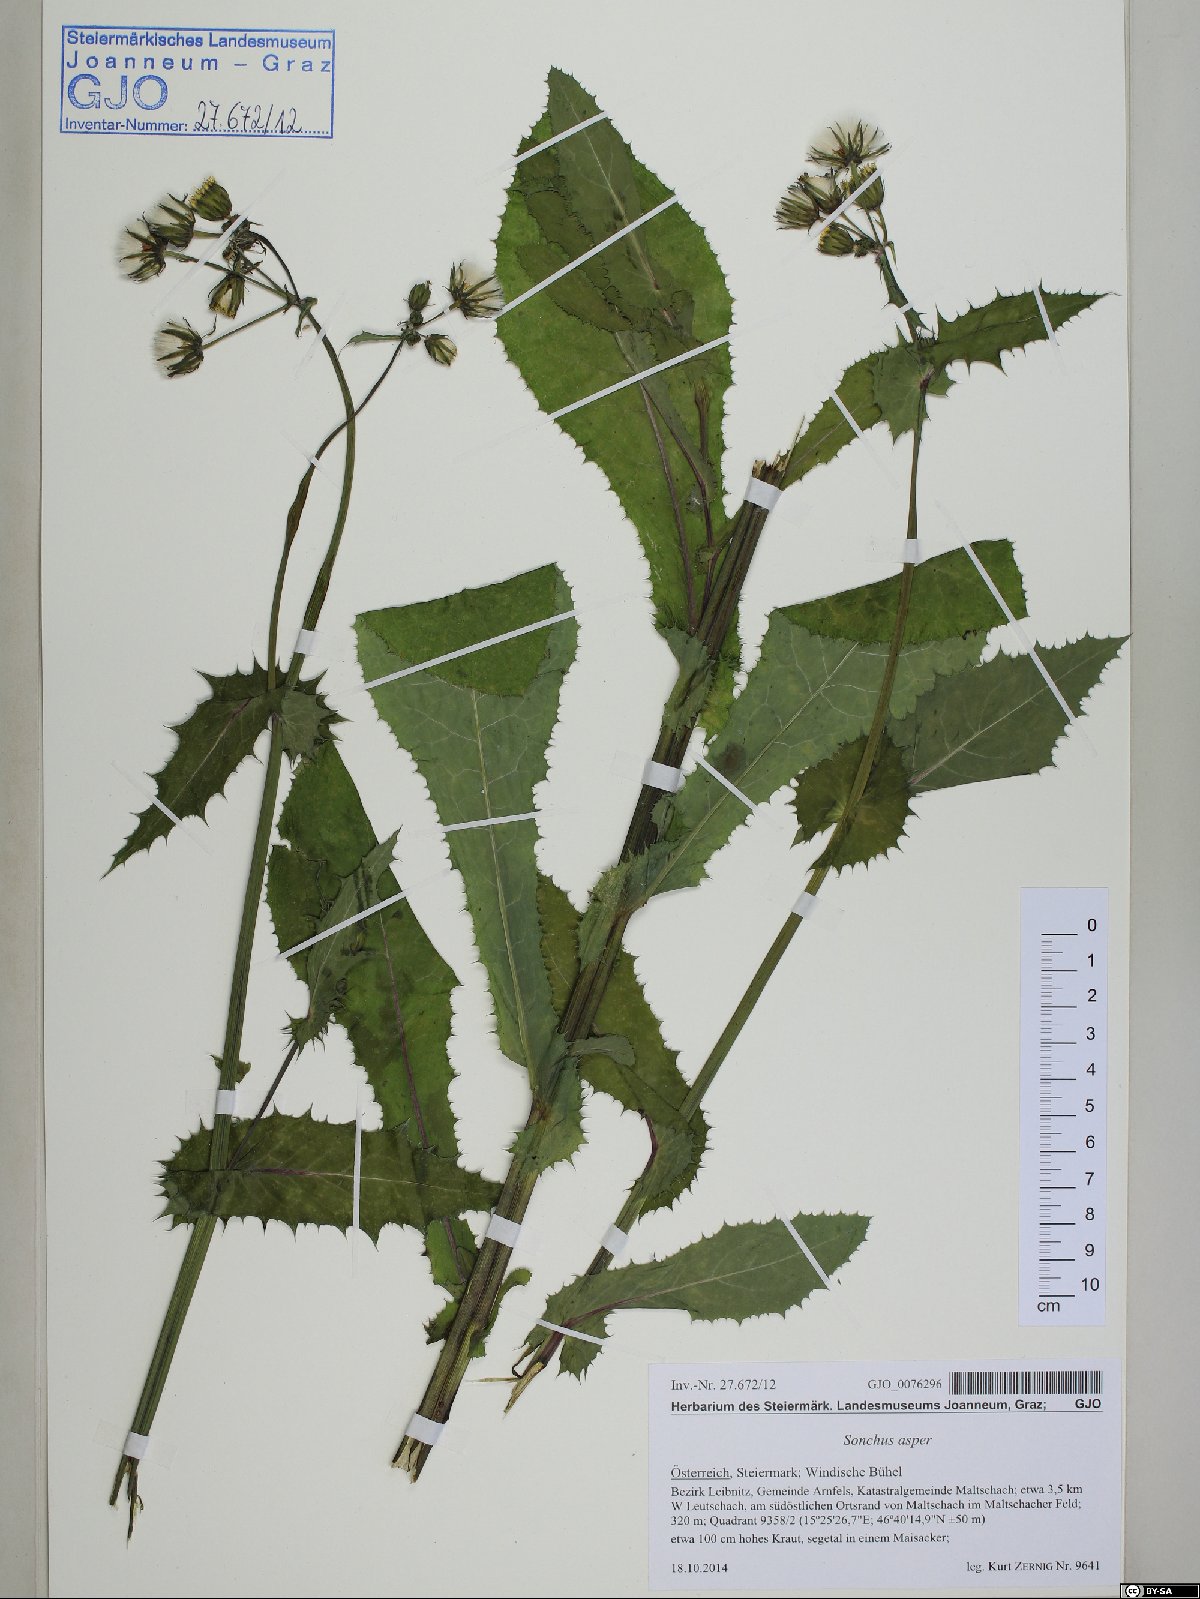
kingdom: Plantae
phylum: Tracheophyta
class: Magnoliopsida
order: Asterales
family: Asteraceae
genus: Sonchus
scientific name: Sonchus asper
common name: Prickly sow-thistle
